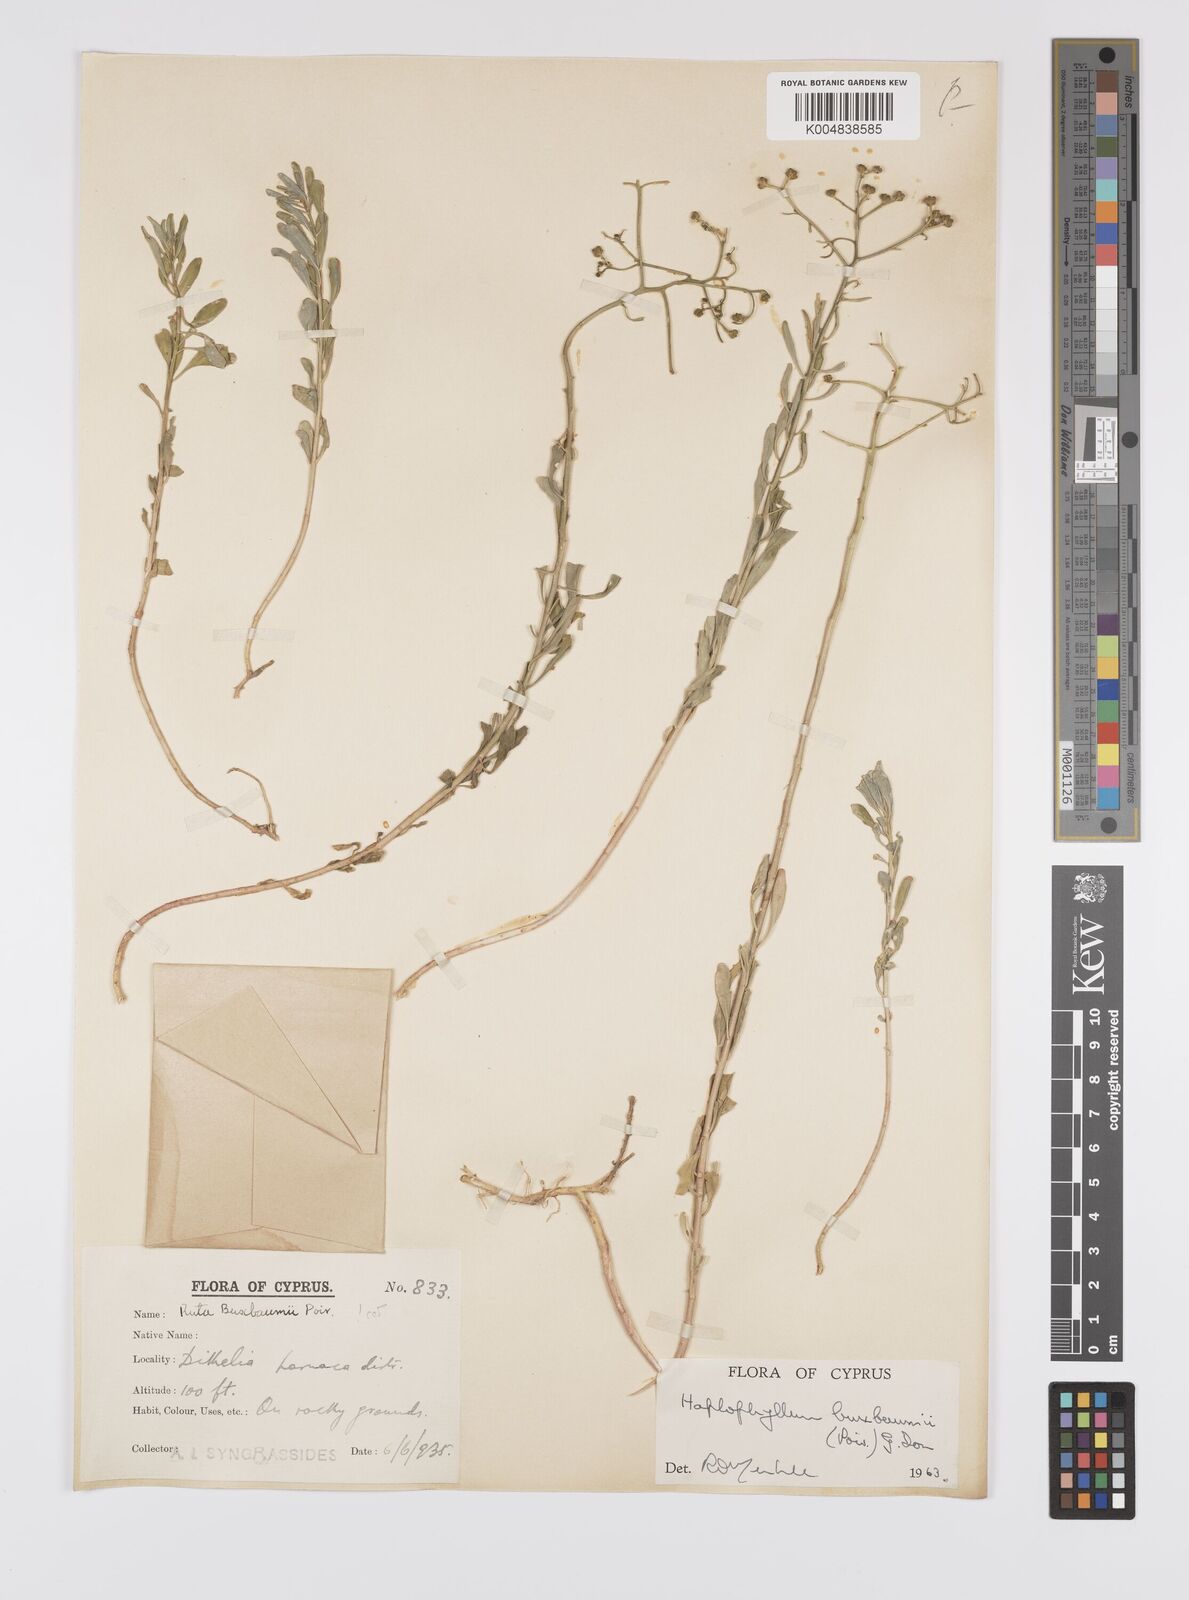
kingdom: Plantae
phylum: Tracheophyta
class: Magnoliopsida
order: Sapindales
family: Rutaceae
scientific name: Rutaceae
